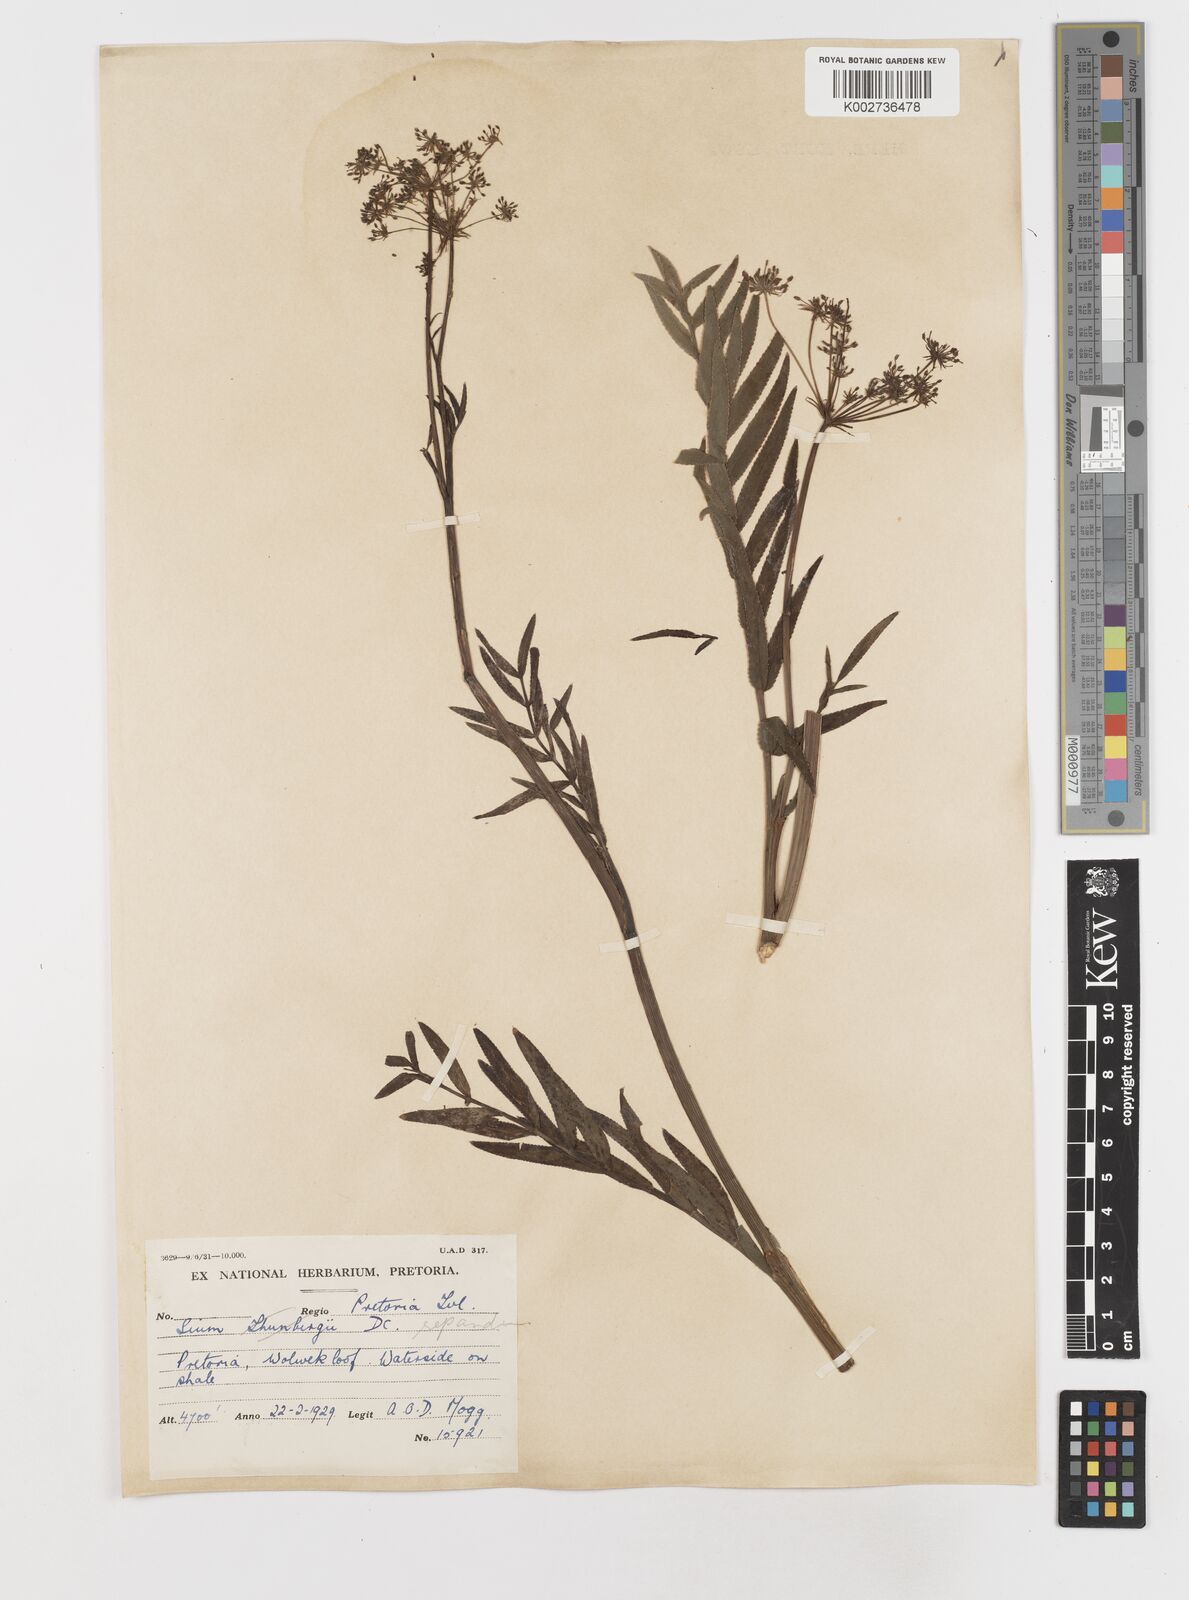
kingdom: Plantae
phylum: Tracheophyta
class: Magnoliopsida
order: Apiales
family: Apiaceae
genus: Berula
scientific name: Berula repanda
